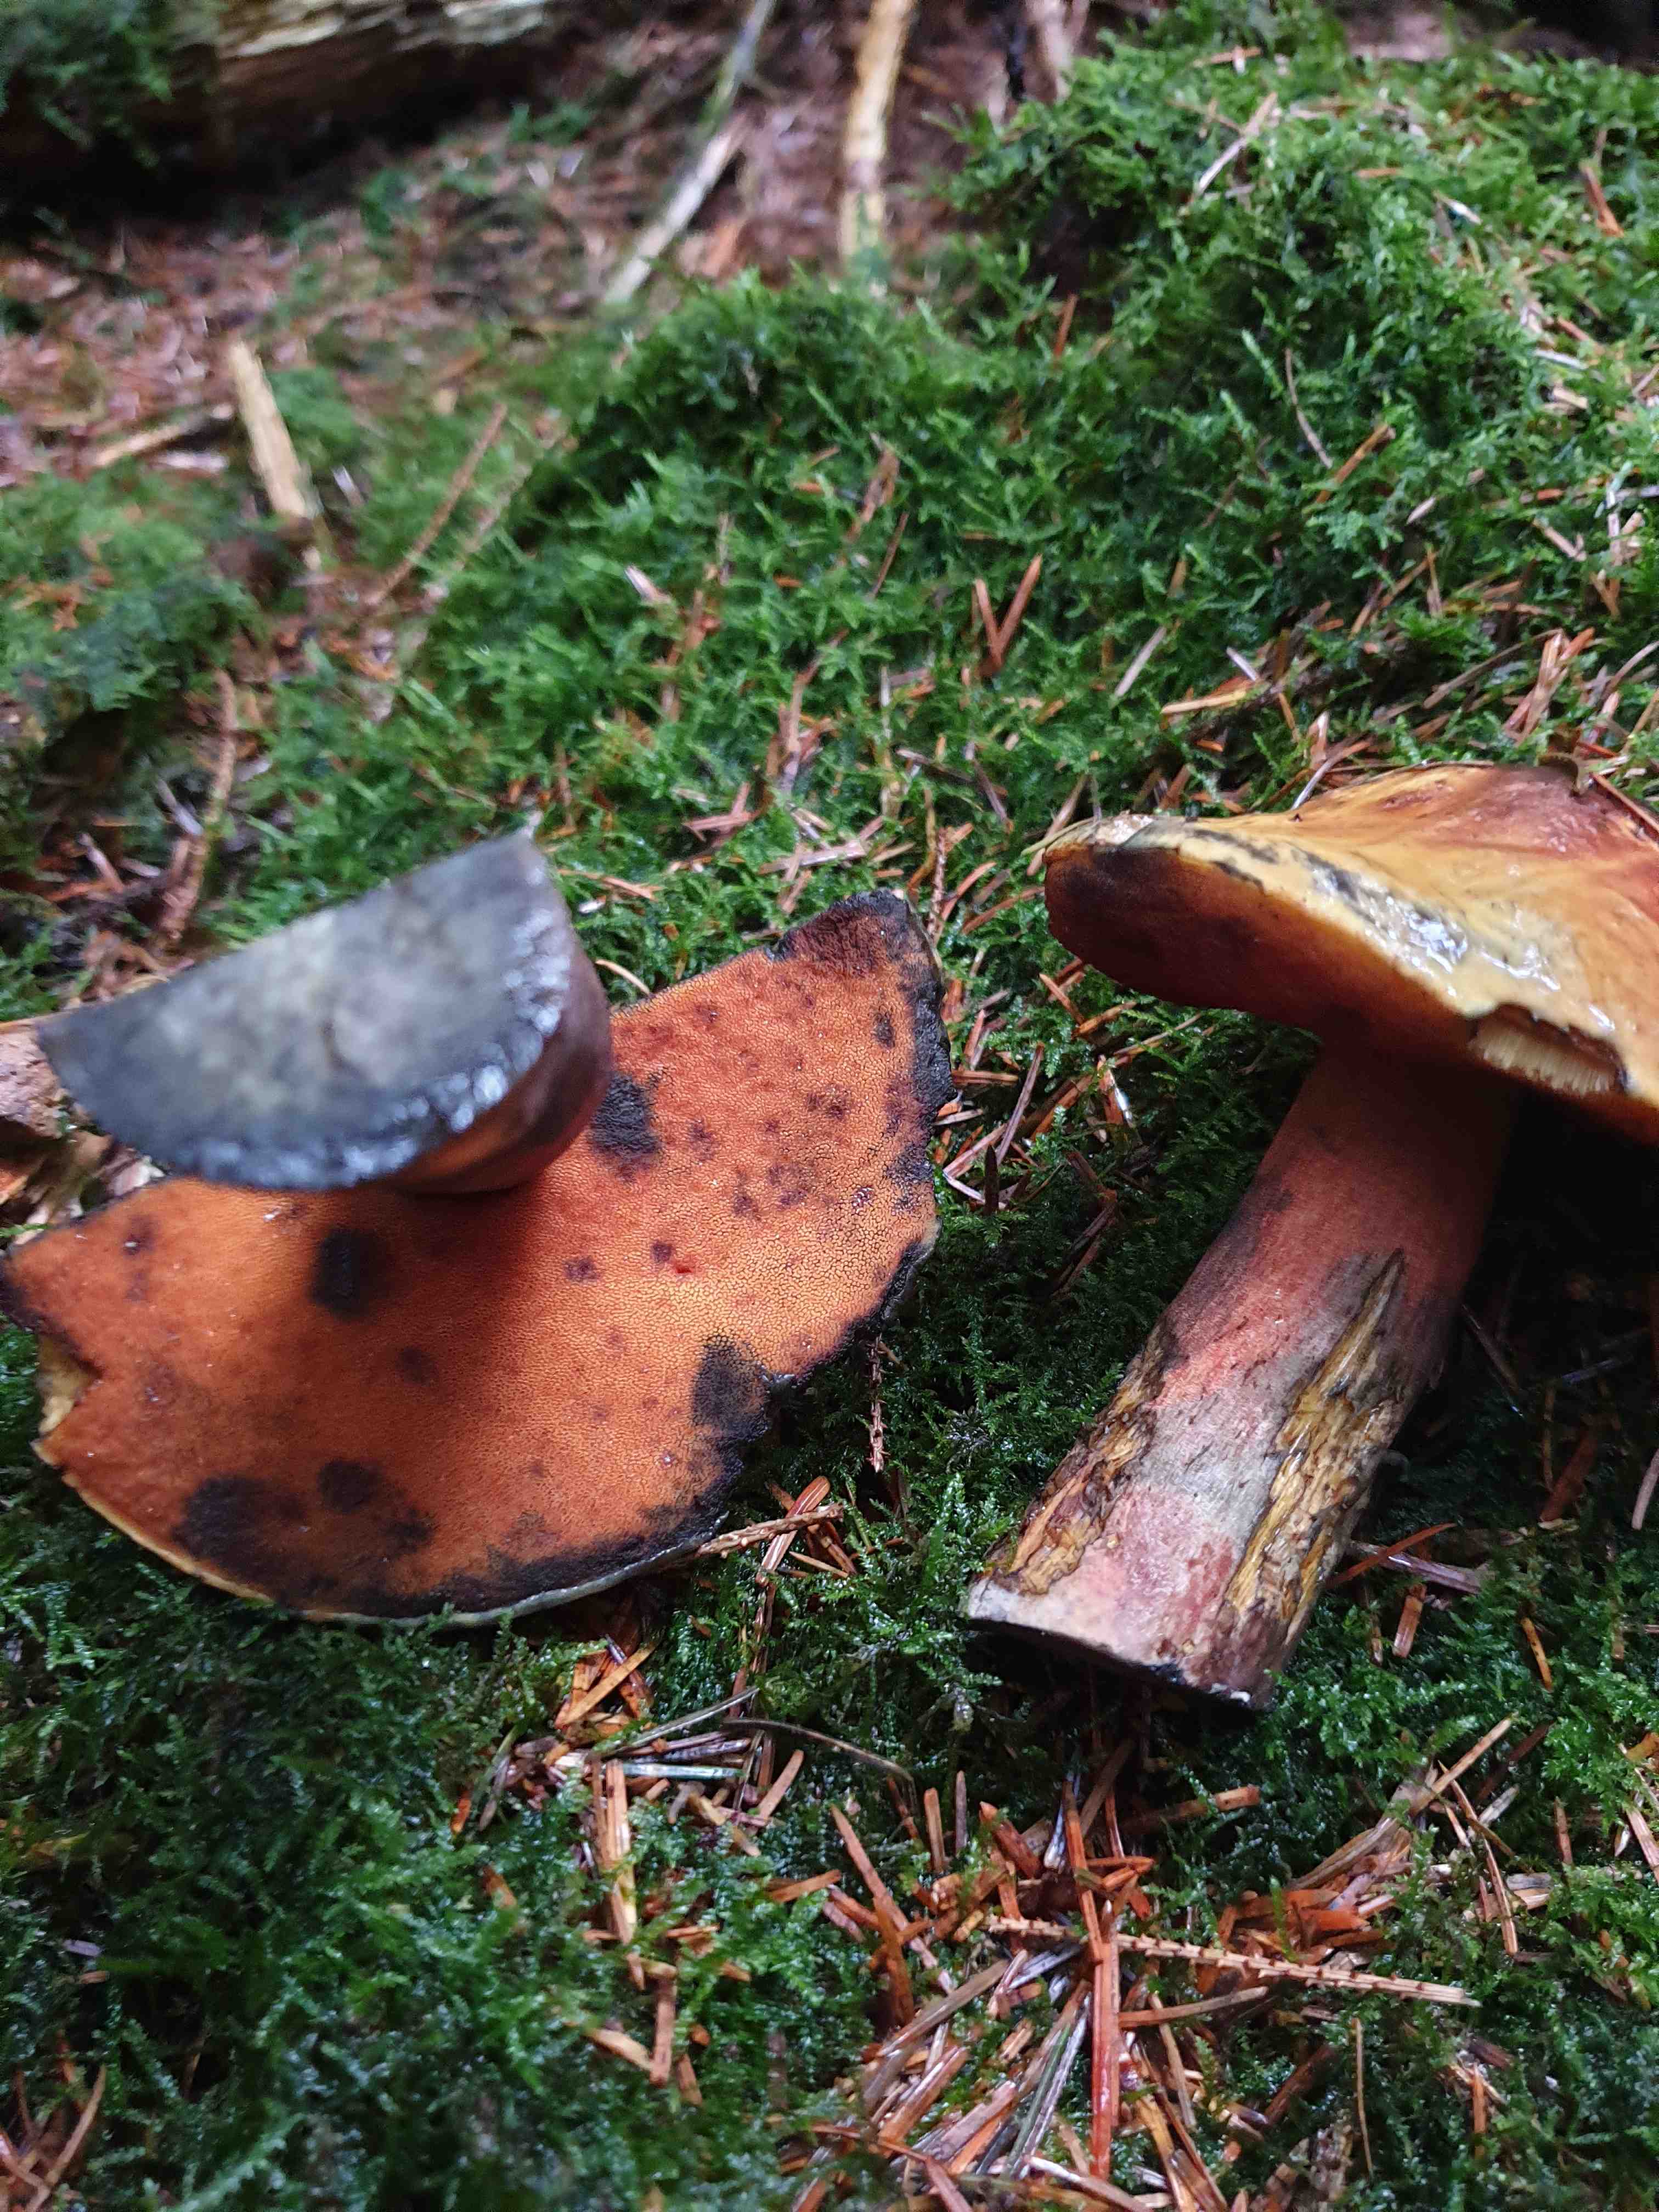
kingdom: Fungi
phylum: Basidiomycota
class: Agaricomycetes
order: Boletales
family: Boletaceae
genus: Neoboletus
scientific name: Neoboletus erythropus
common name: punktstokket indigorørhat
